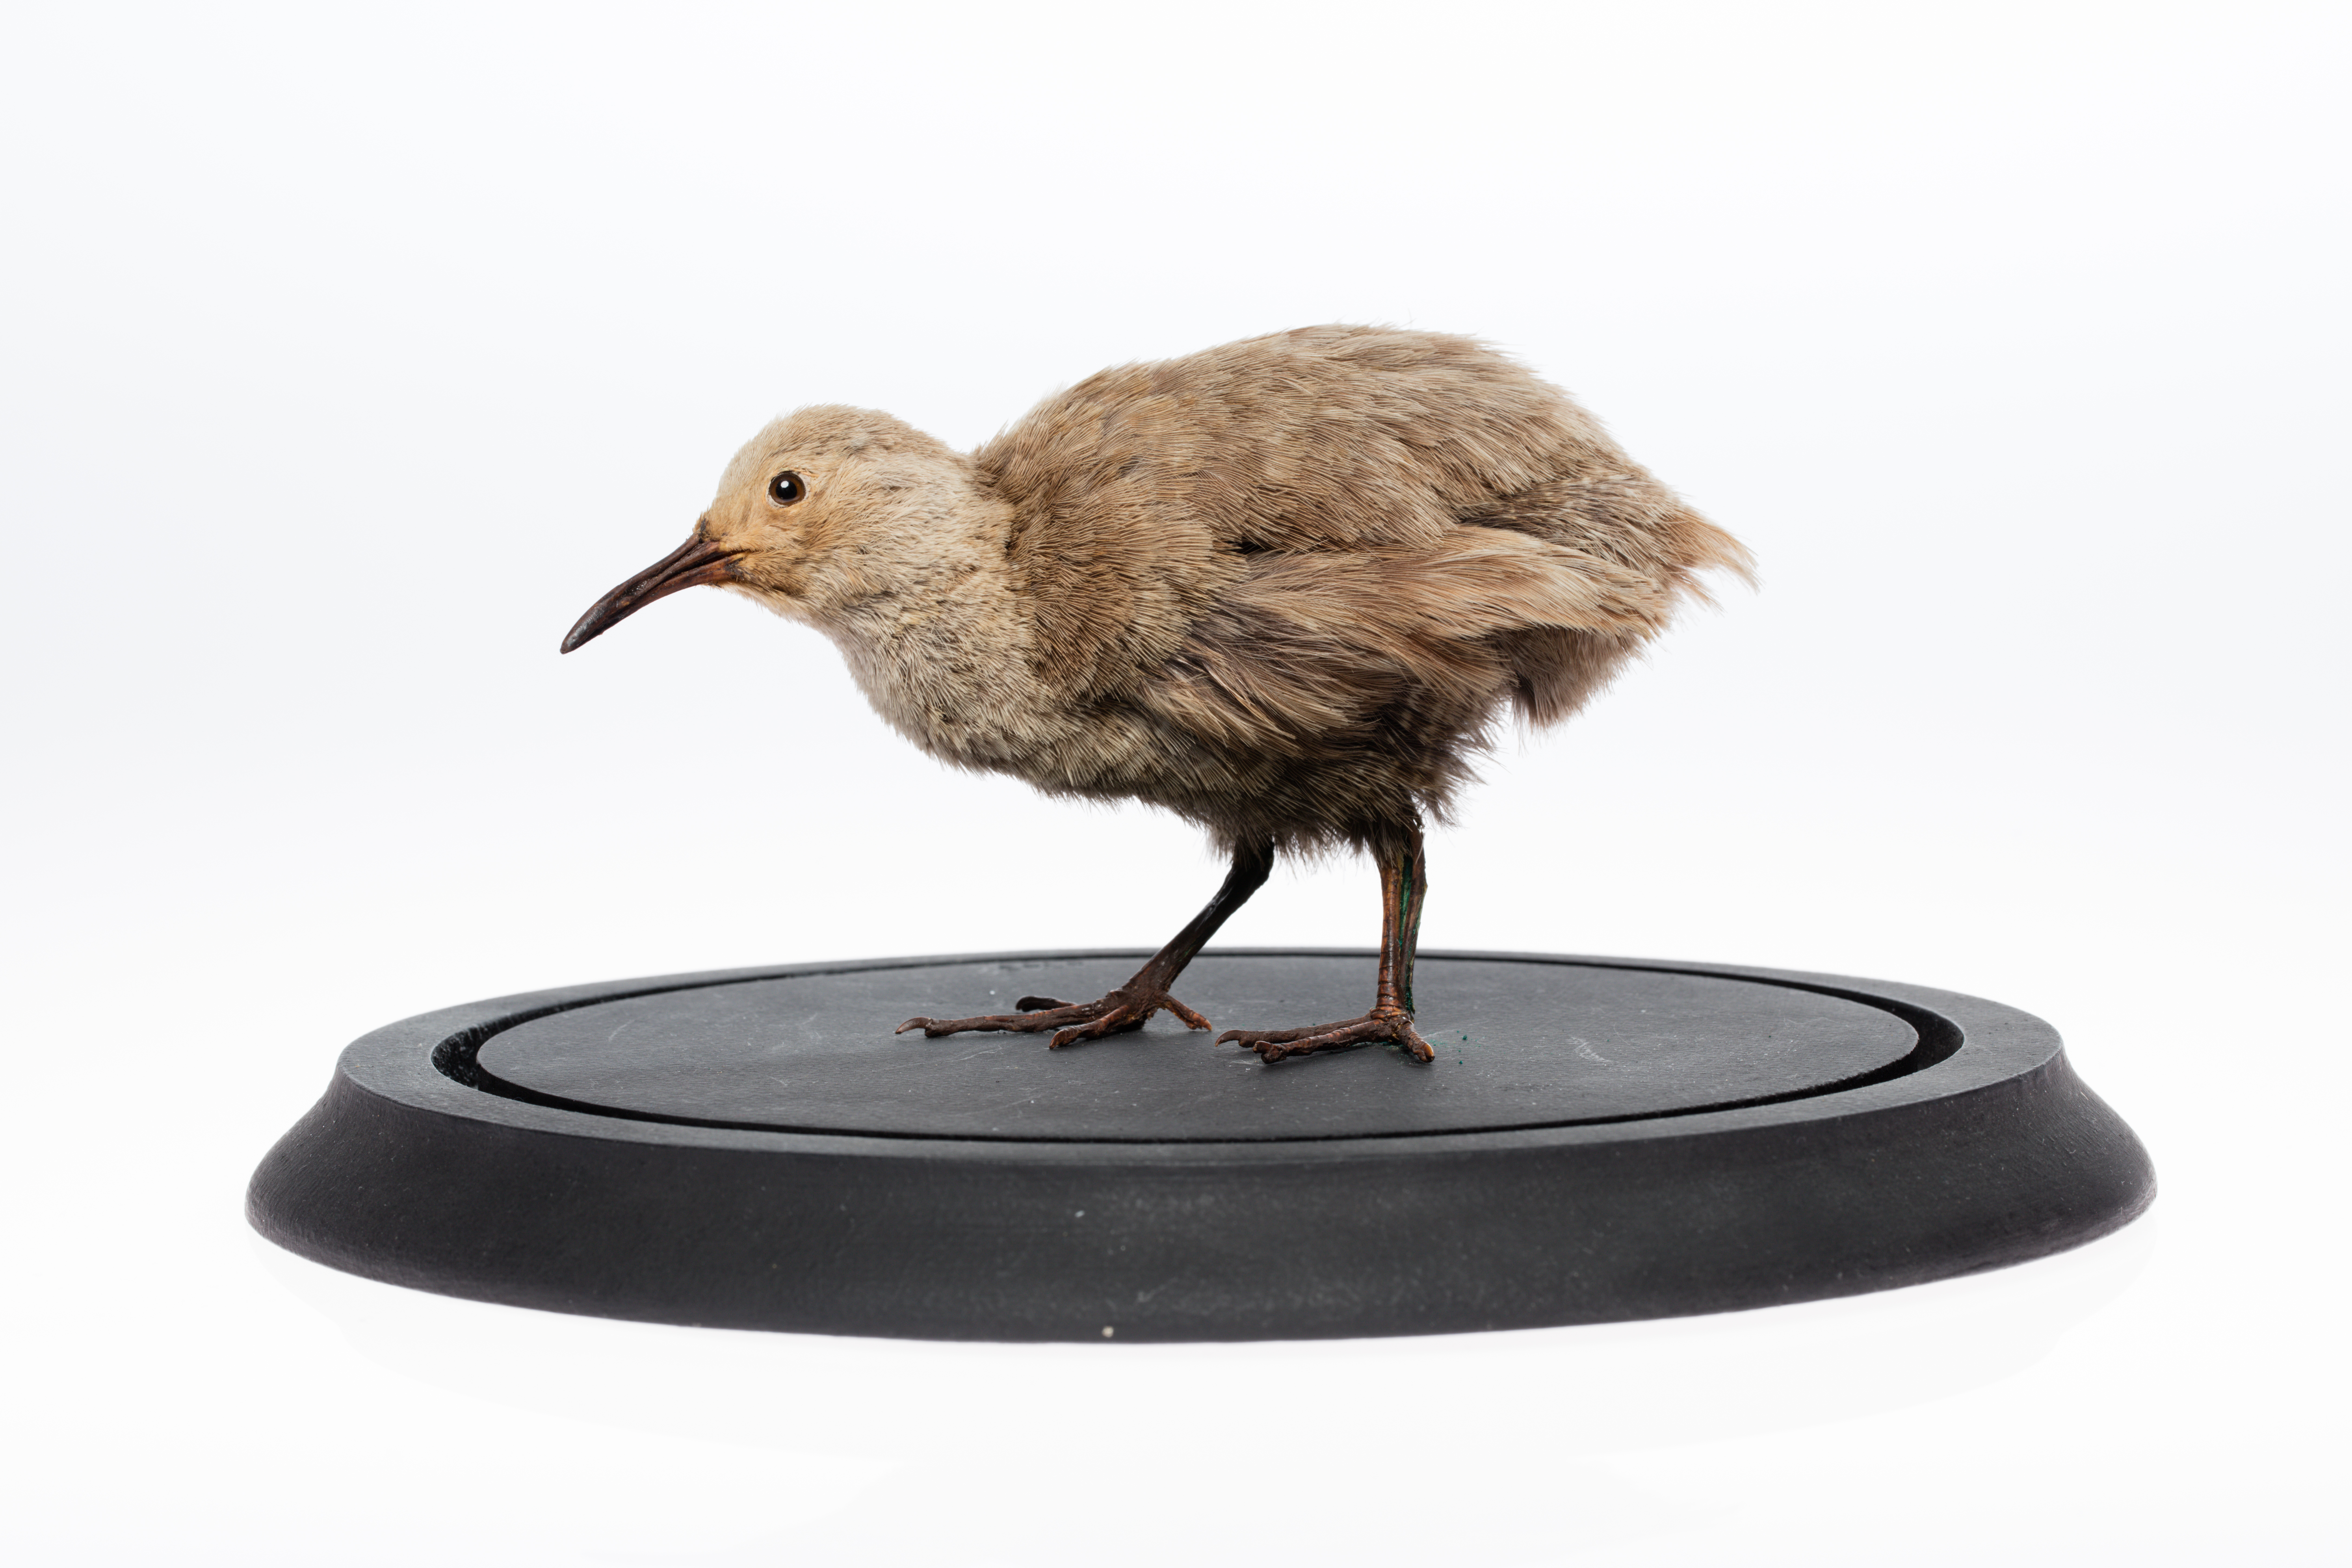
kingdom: Animalia
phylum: Chordata
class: Aves
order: Gruiformes
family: Rallidae
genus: Cabalus
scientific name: Cabalus modestus
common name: Chatham rail
